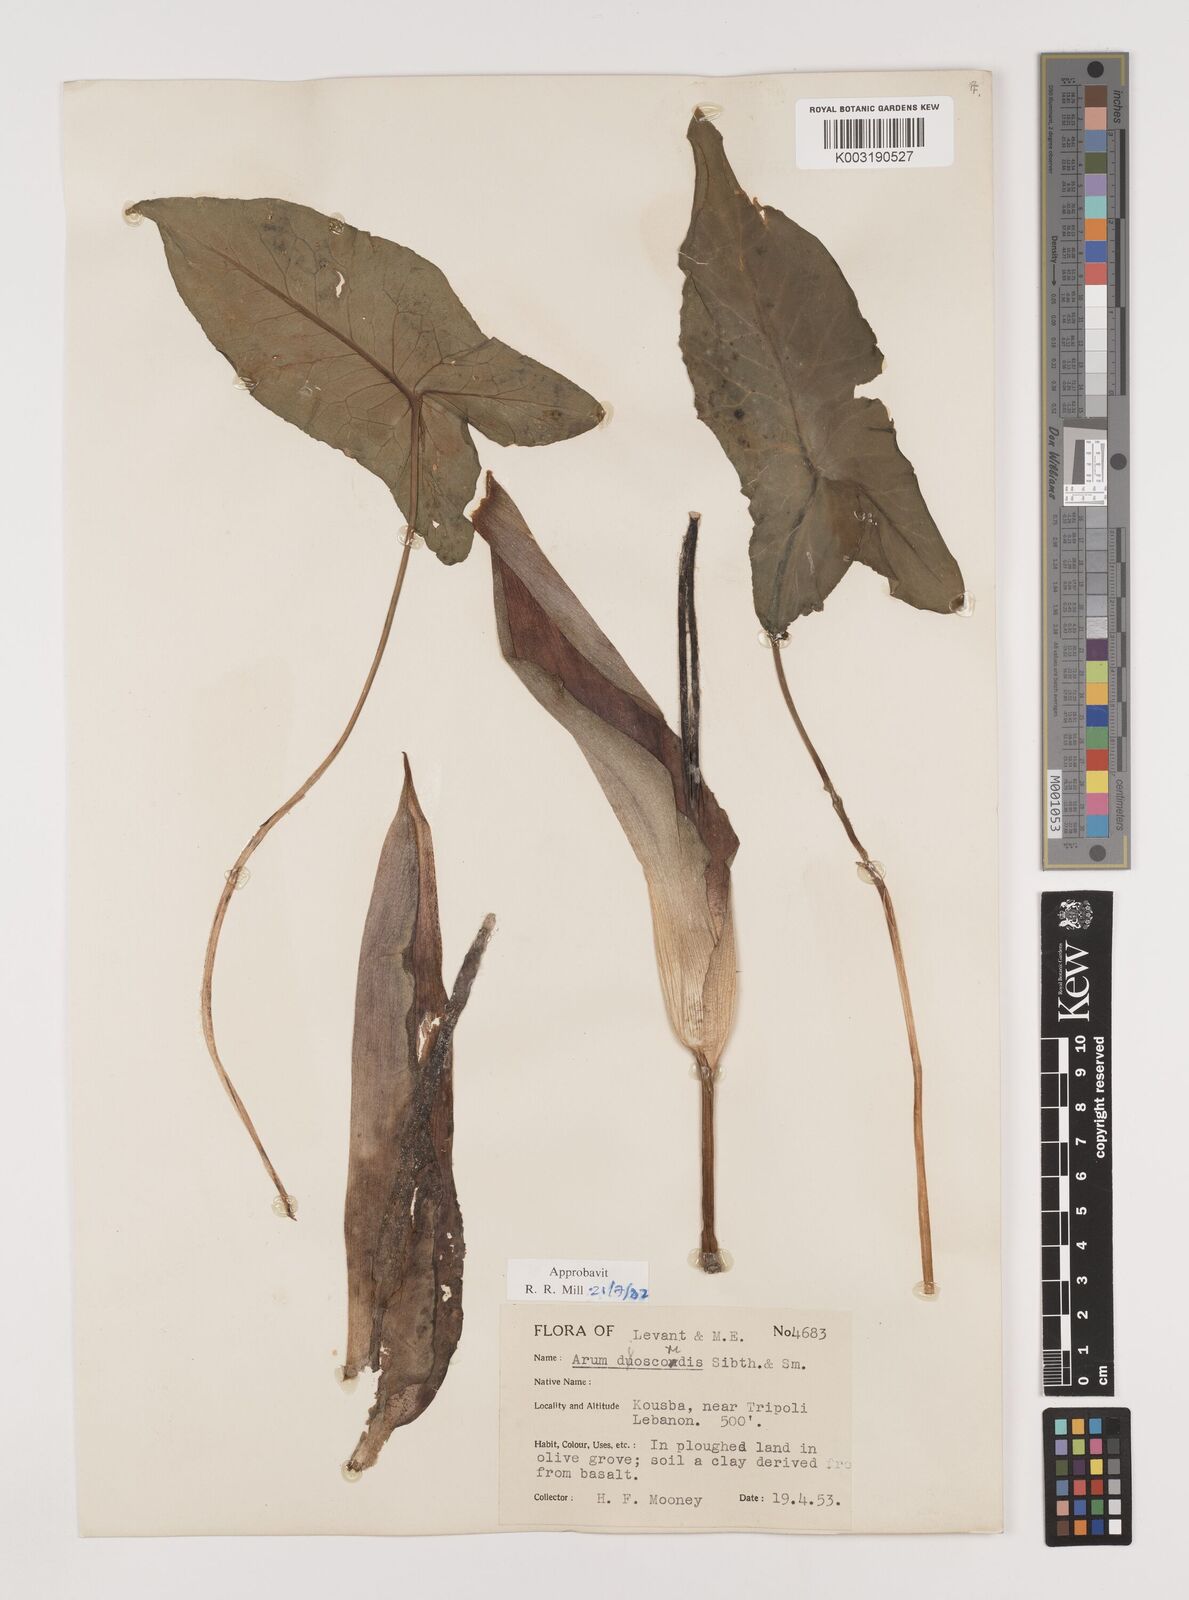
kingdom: Plantae
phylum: Tracheophyta
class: Liliopsida
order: Alismatales
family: Araceae
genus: Arum
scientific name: Arum dioscoridis
